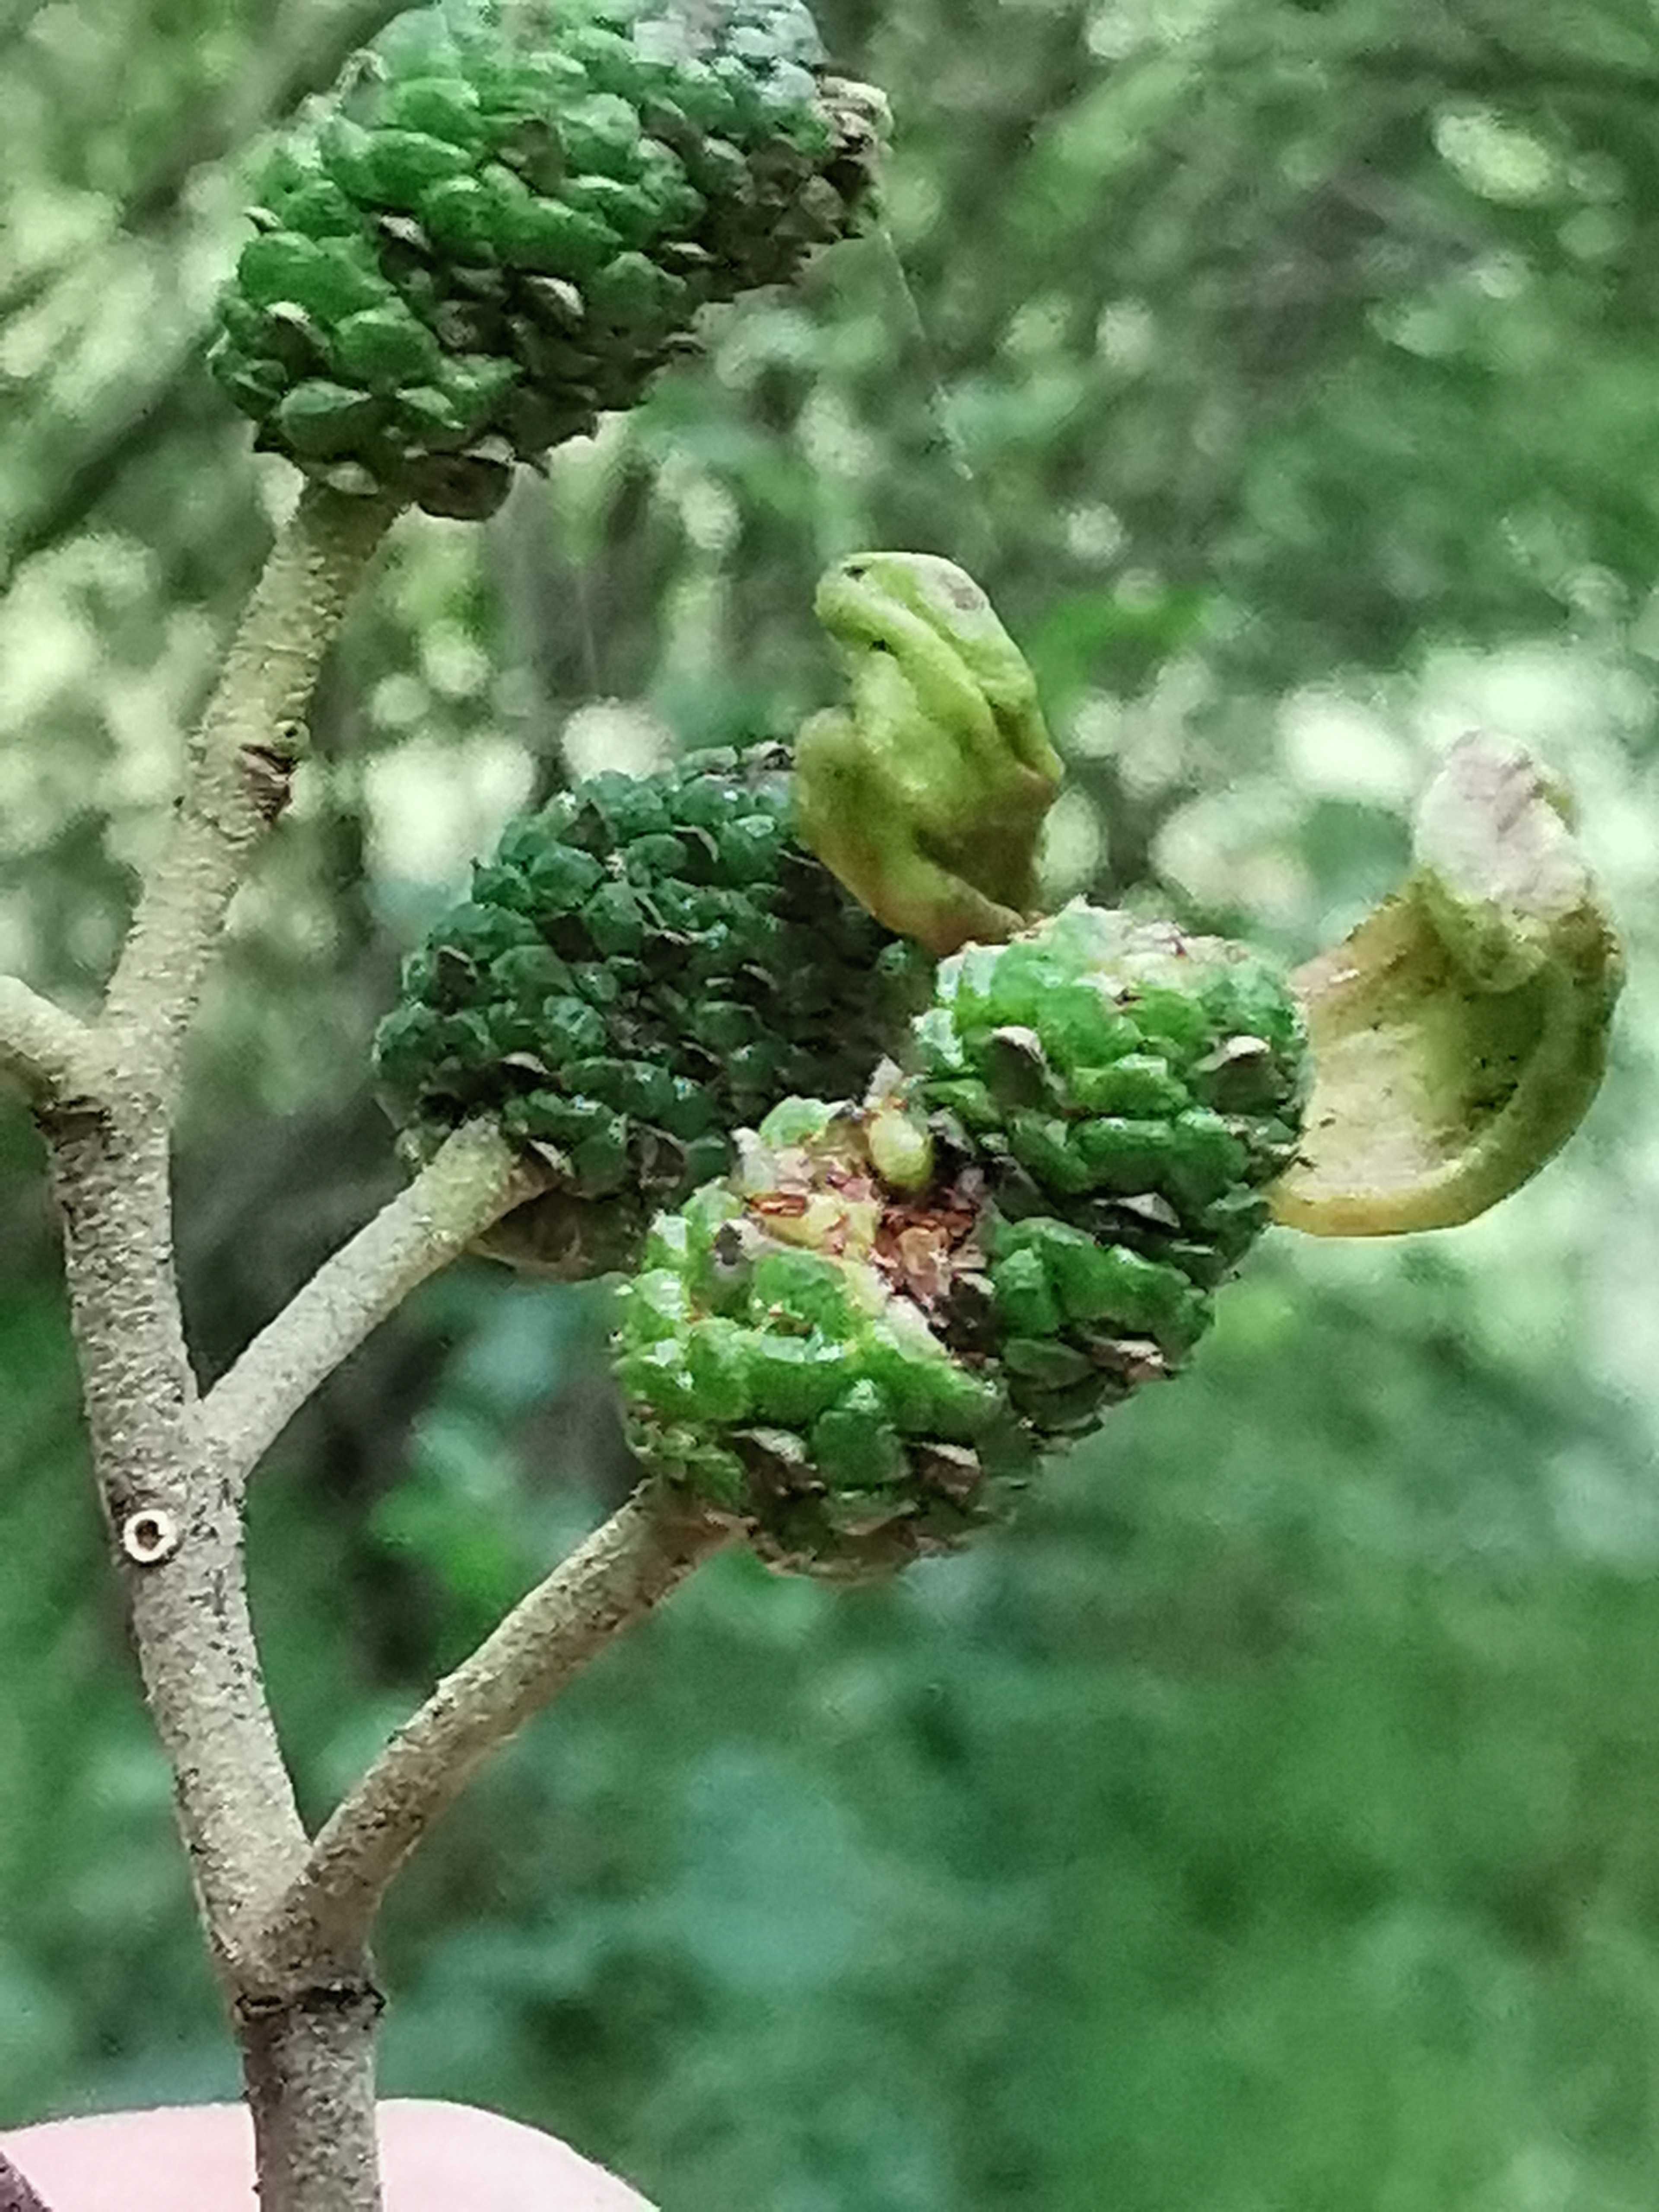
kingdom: Fungi
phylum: Ascomycota
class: Taphrinomycetes
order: Taphrinales
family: Taphrinaceae
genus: Taphrina
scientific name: Taphrina alni
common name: Alder tongue
